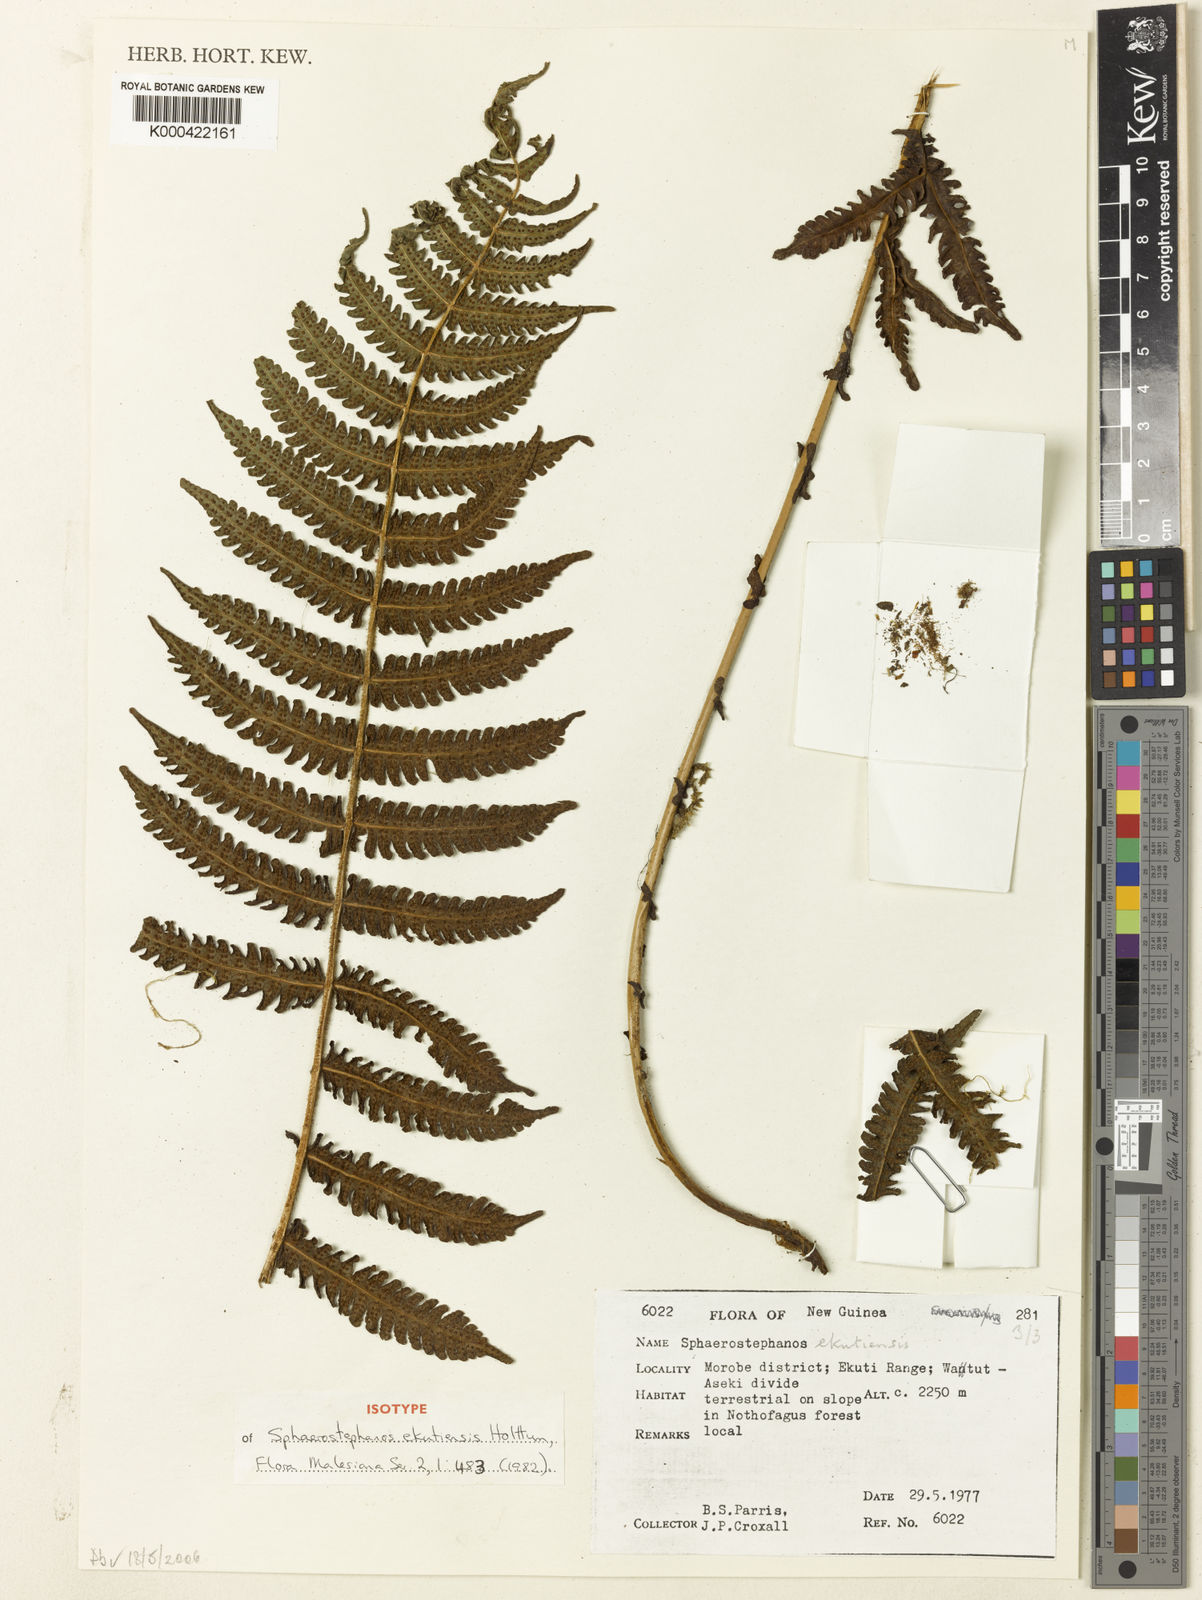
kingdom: Plantae
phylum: Tracheophyta
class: Polypodiopsida
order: Polypodiales
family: Thelypteridaceae
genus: Sphaerostephanos
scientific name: Sphaerostephanos ekutiensis
